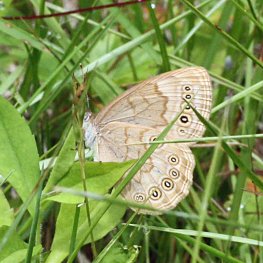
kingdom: Animalia
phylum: Arthropoda
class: Insecta
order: Lepidoptera
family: Nymphalidae
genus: Lethe
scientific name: Lethe eurydice
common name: Eyed Brown
